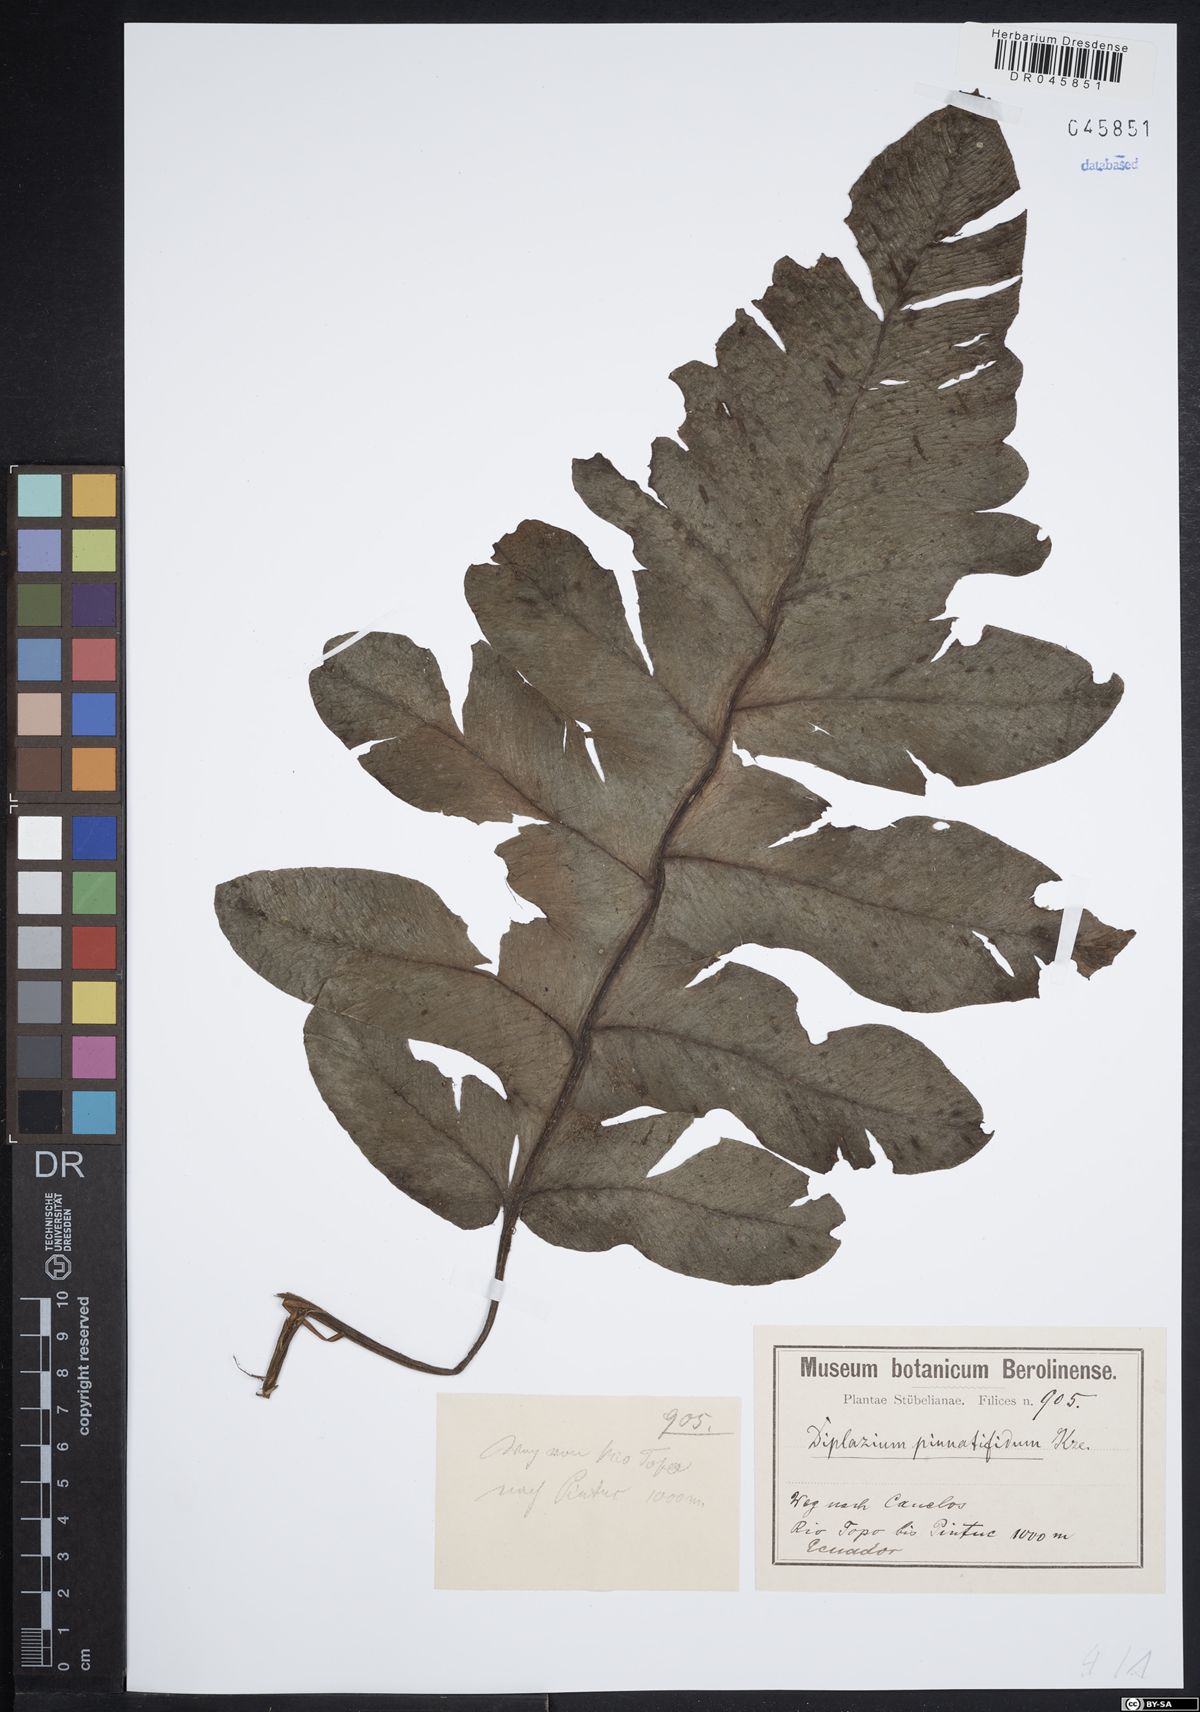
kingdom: Plantae
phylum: Tracheophyta
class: Polypodiopsida
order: Polypodiales
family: Athyriaceae
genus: Diplazium
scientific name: Diplazium pinnatifidum
